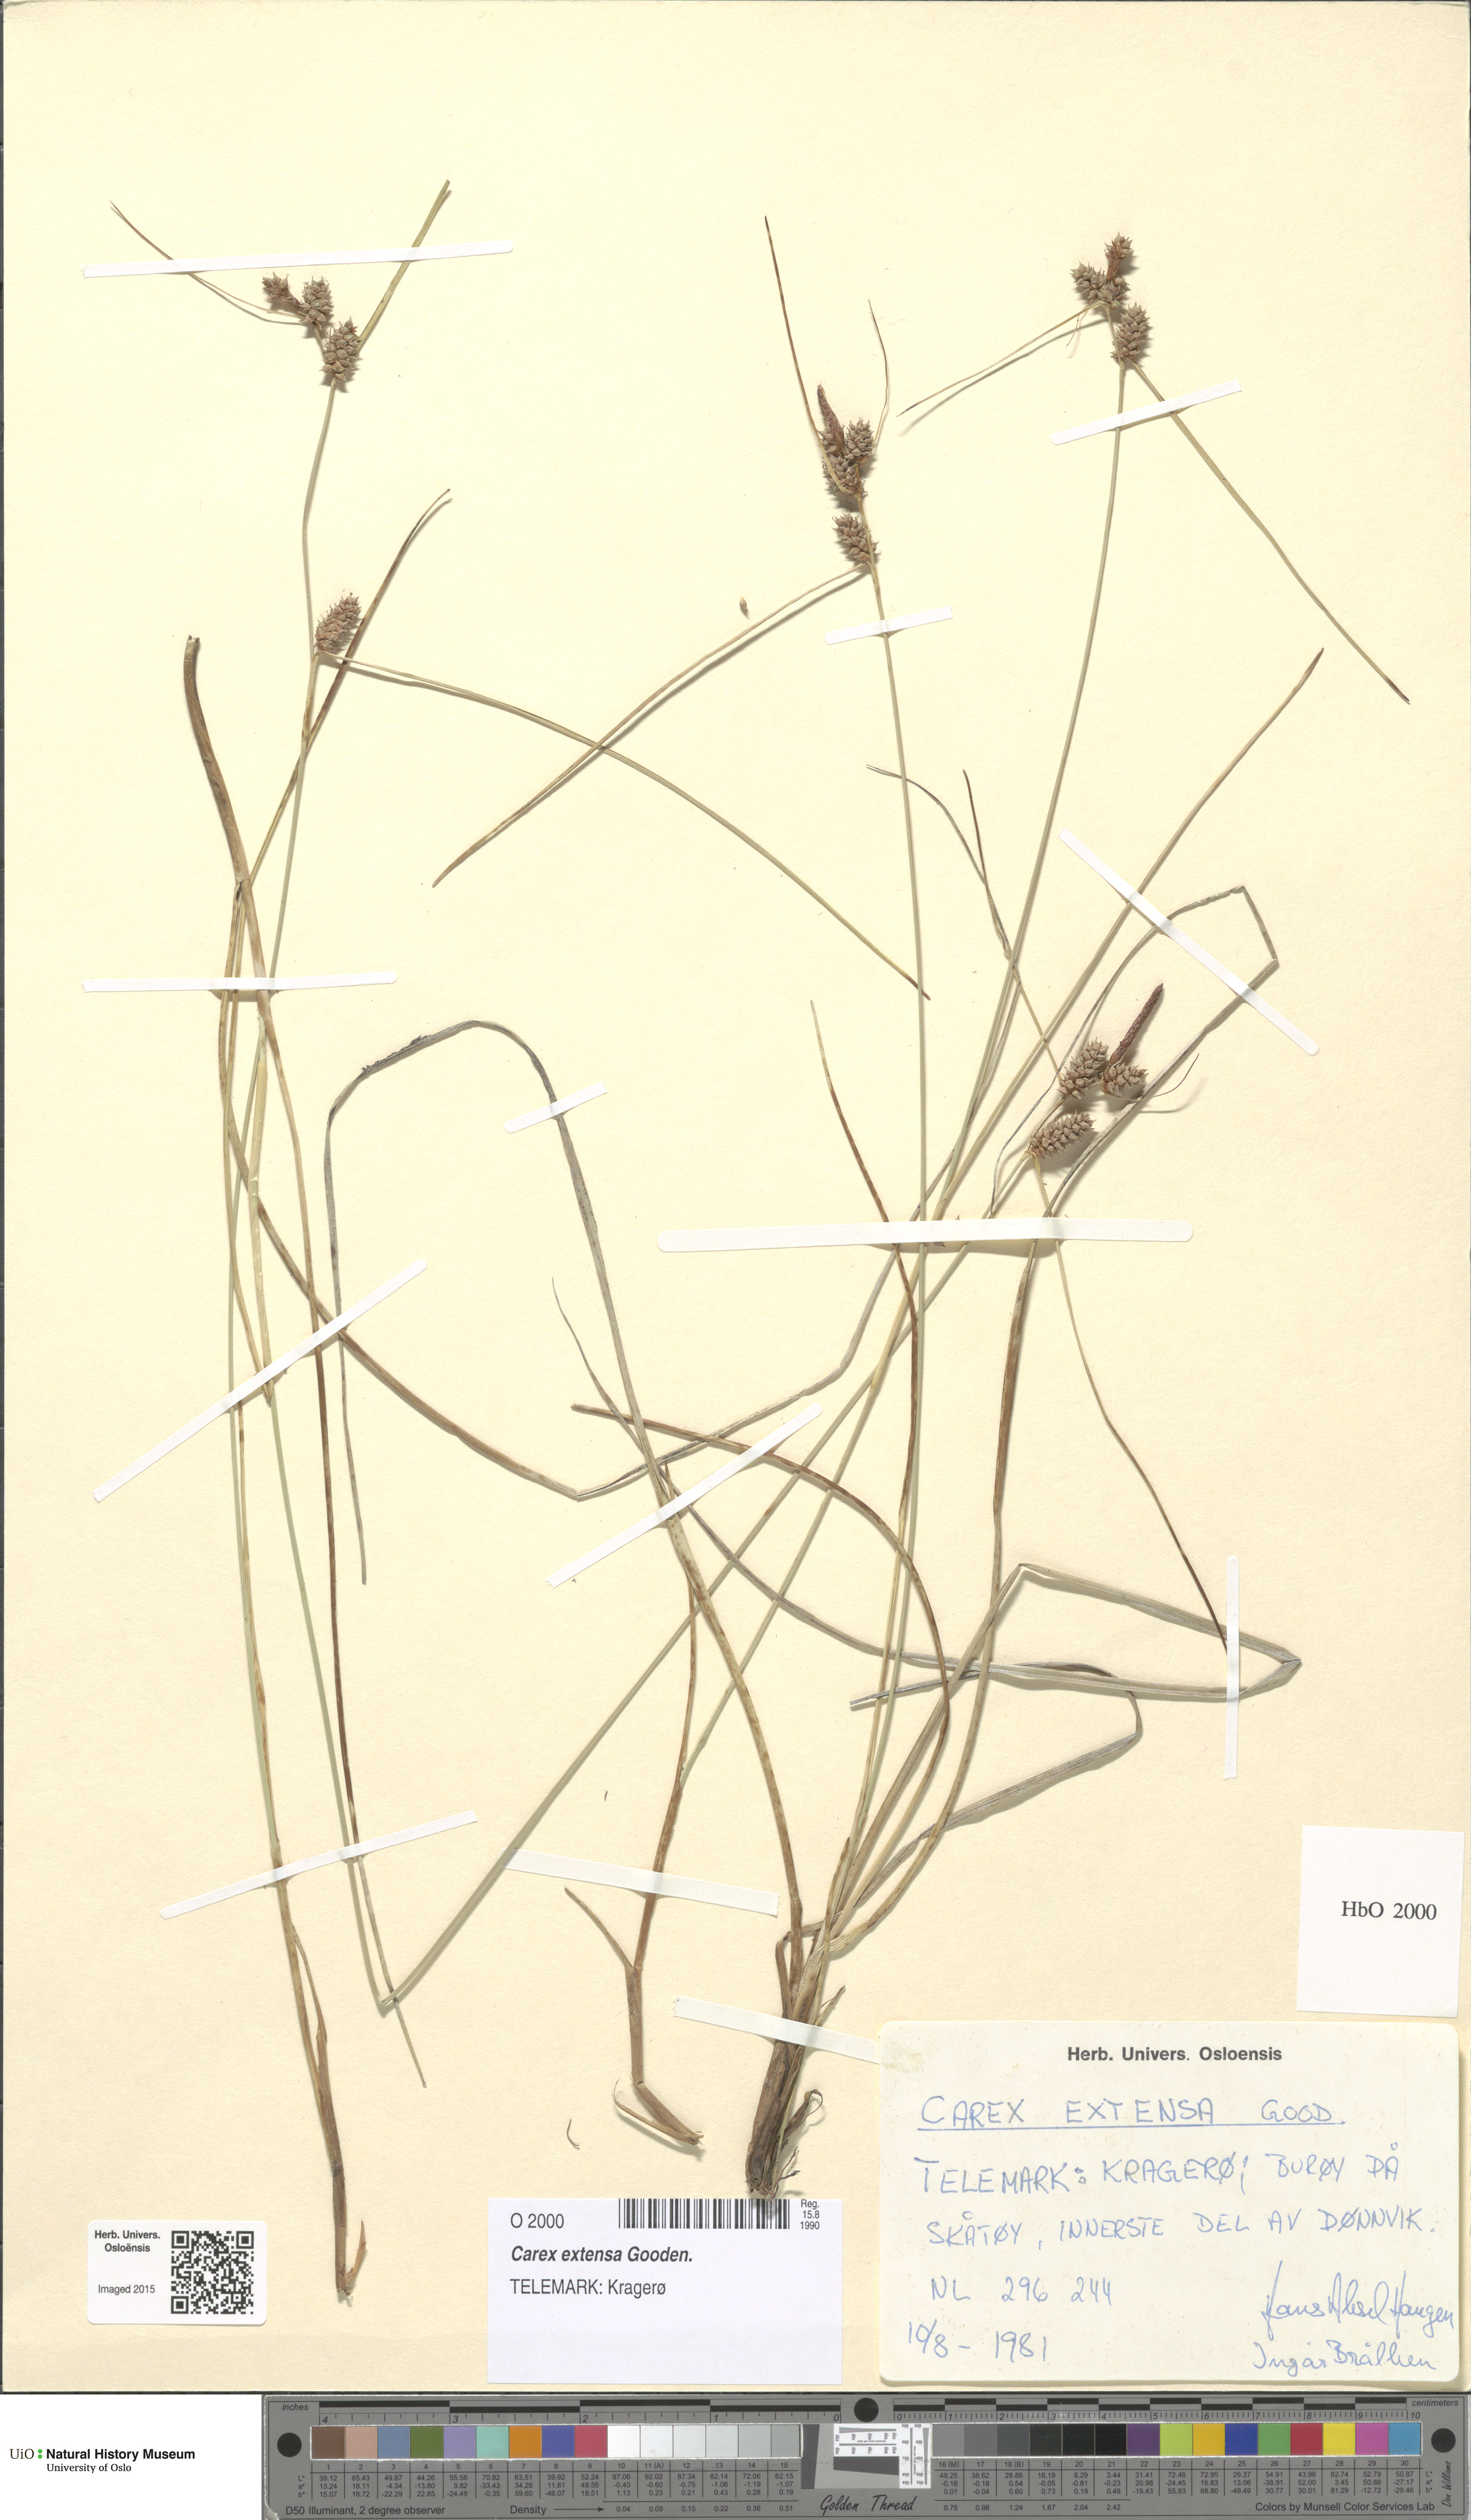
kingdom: Plantae
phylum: Tracheophyta
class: Liliopsida
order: Poales
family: Cyperaceae
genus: Carex
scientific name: Carex extensa
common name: Long-bracted sedge
